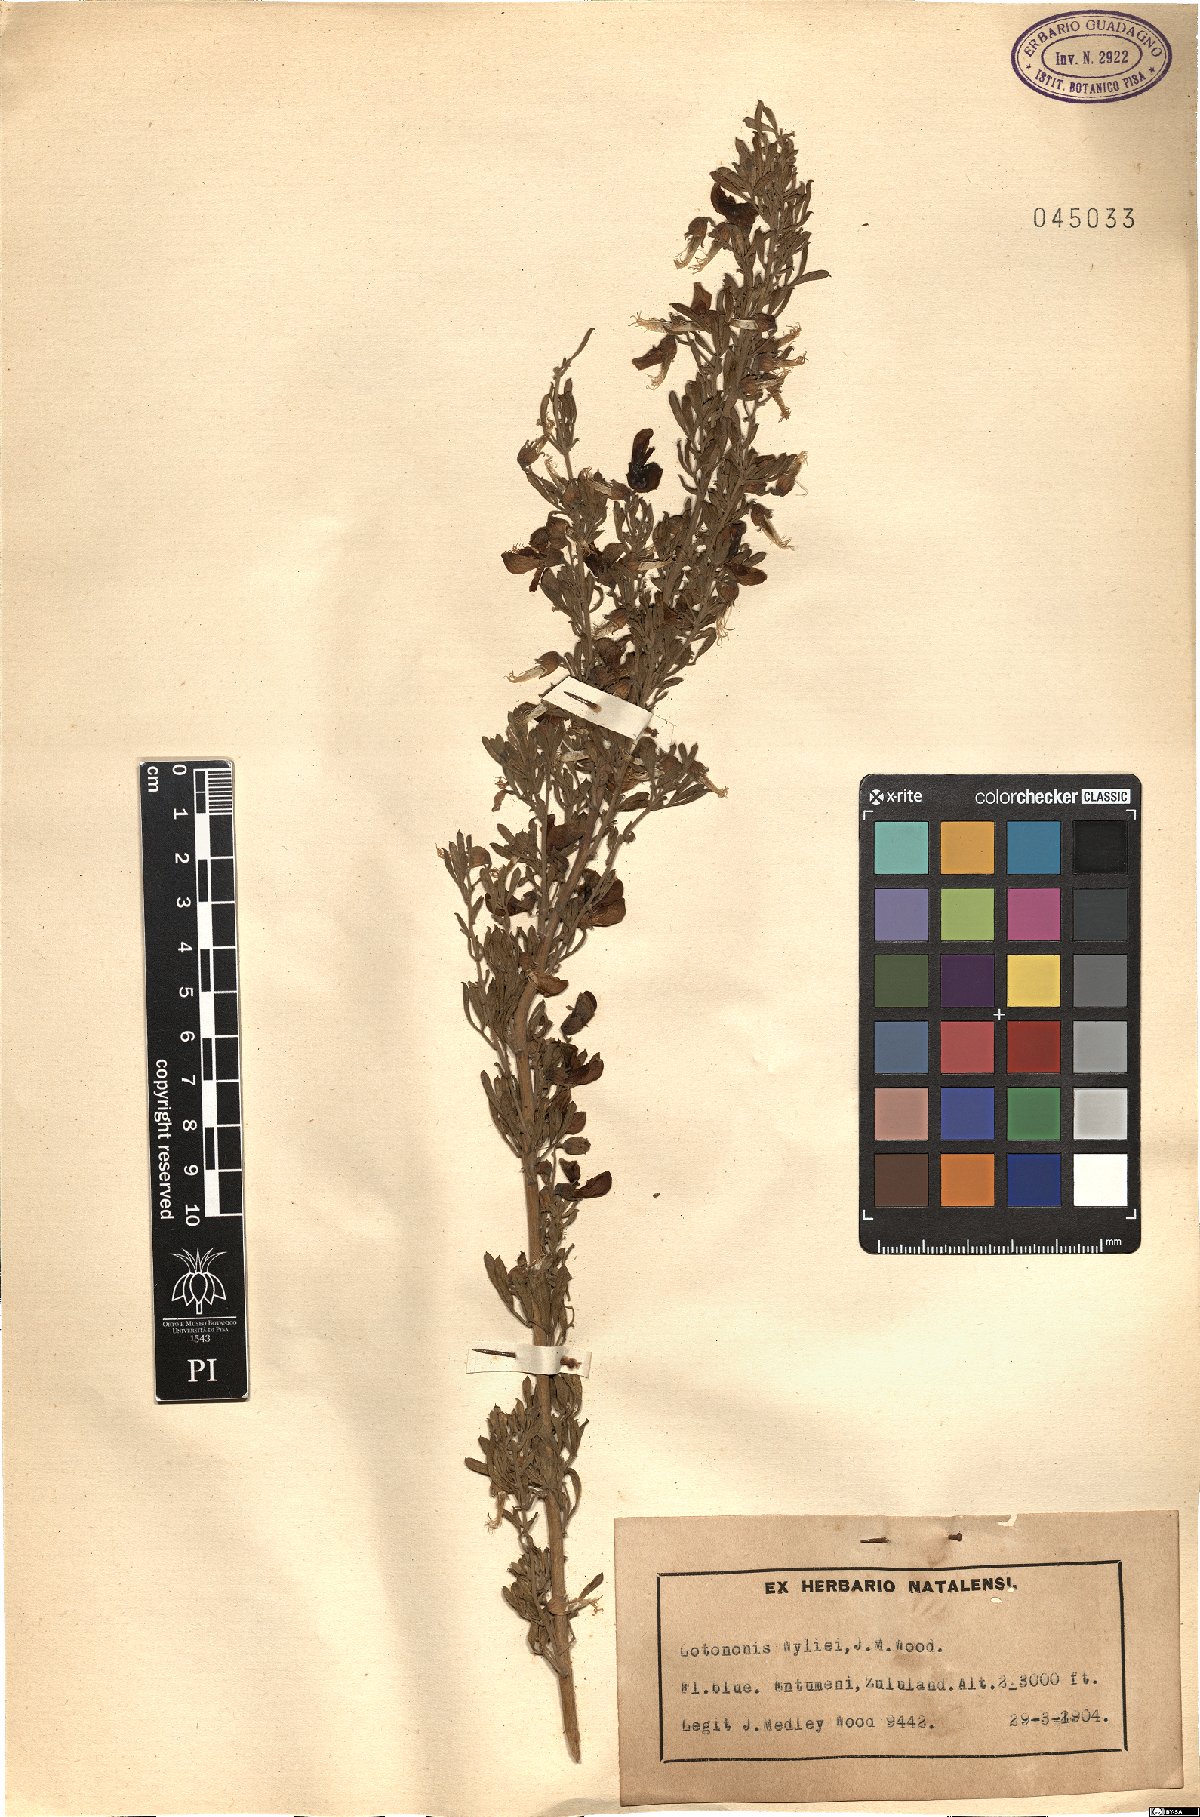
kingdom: Plantae
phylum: Tracheophyta
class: Magnoliopsida
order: Fabales
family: Fabaceae
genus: Lotononis
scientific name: Lotononis wyliei
